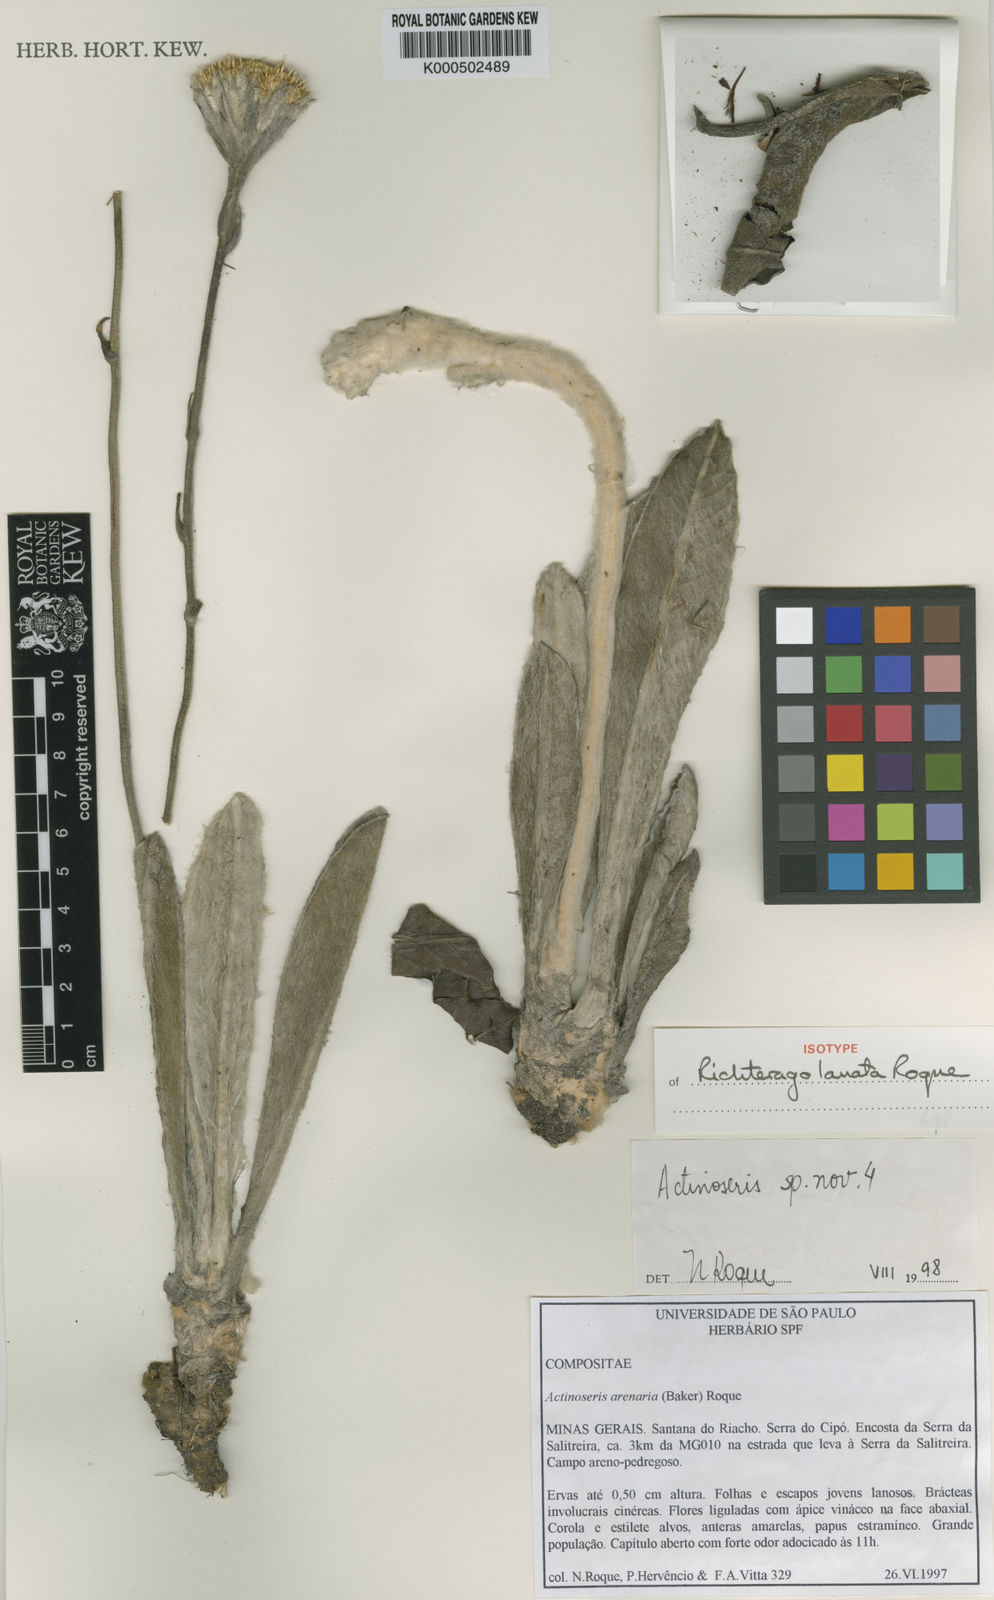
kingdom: Plantae
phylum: Tracheophyta
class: Magnoliopsida
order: Asterales
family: Asteraceae
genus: Richterago
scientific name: Richterago lanata
